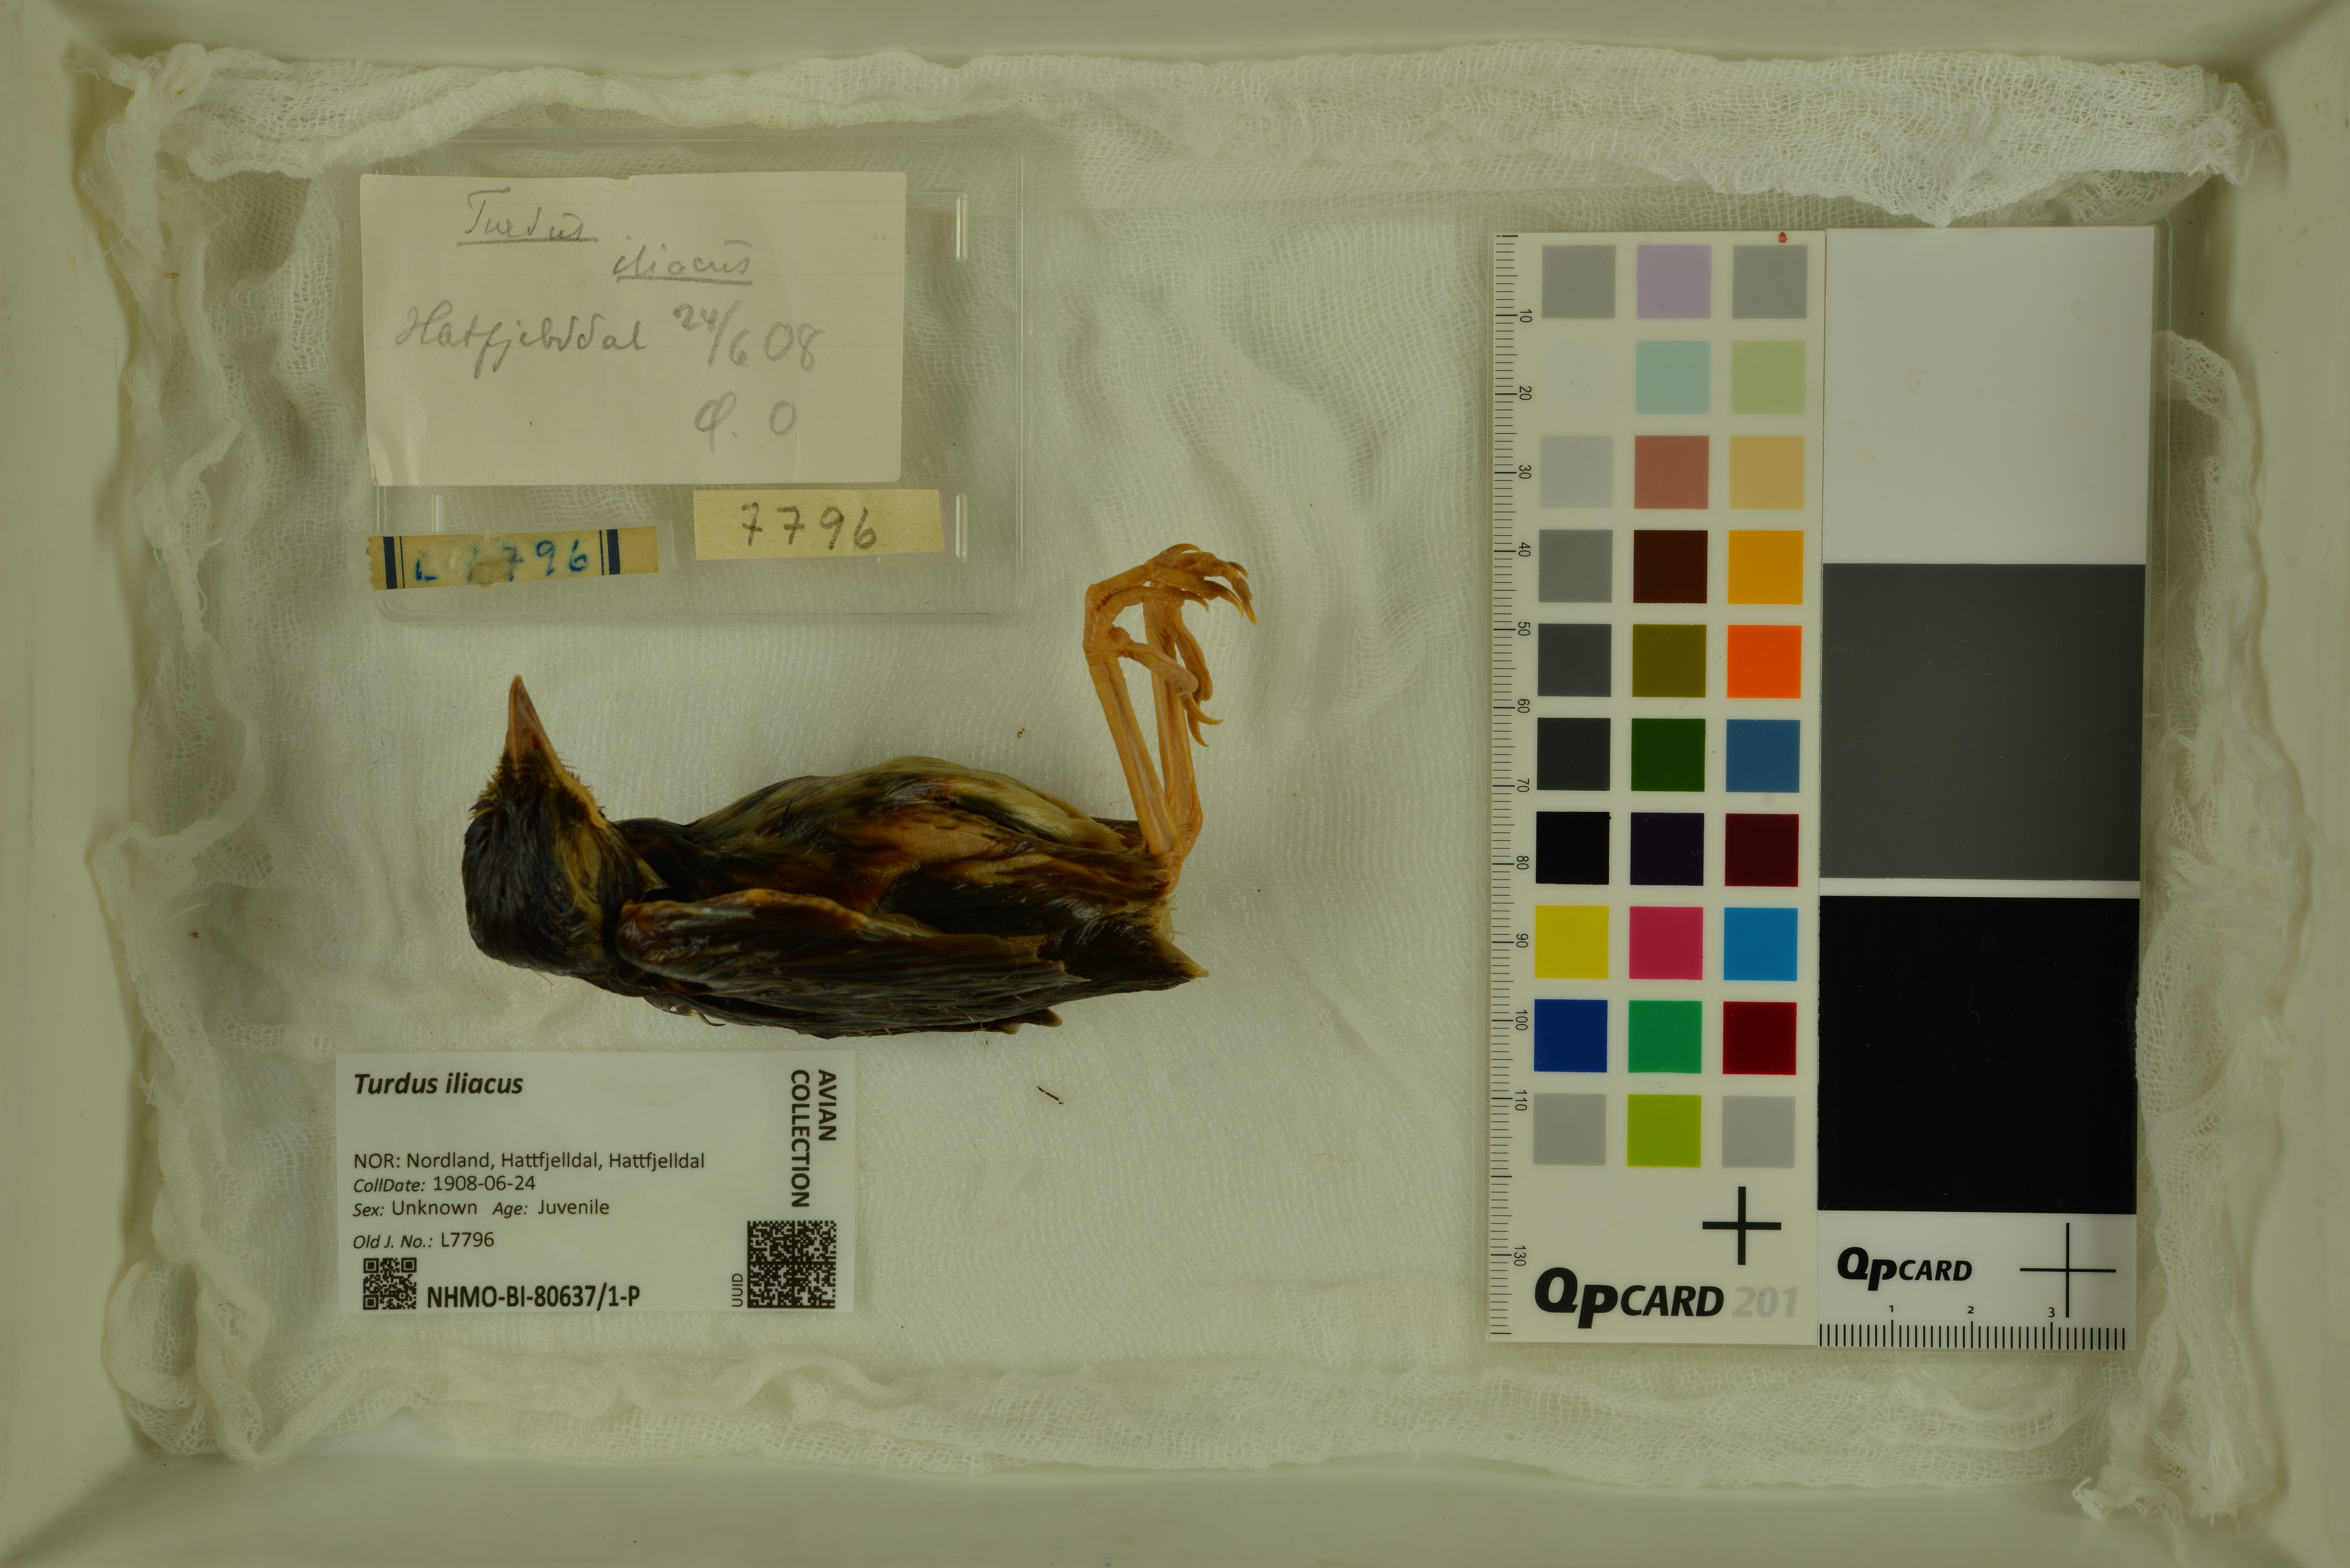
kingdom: Animalia
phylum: Chordata
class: Aves
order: Passeriformes
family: Turdidae
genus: Turdus
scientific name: Turdus iliacus
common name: Redwing
